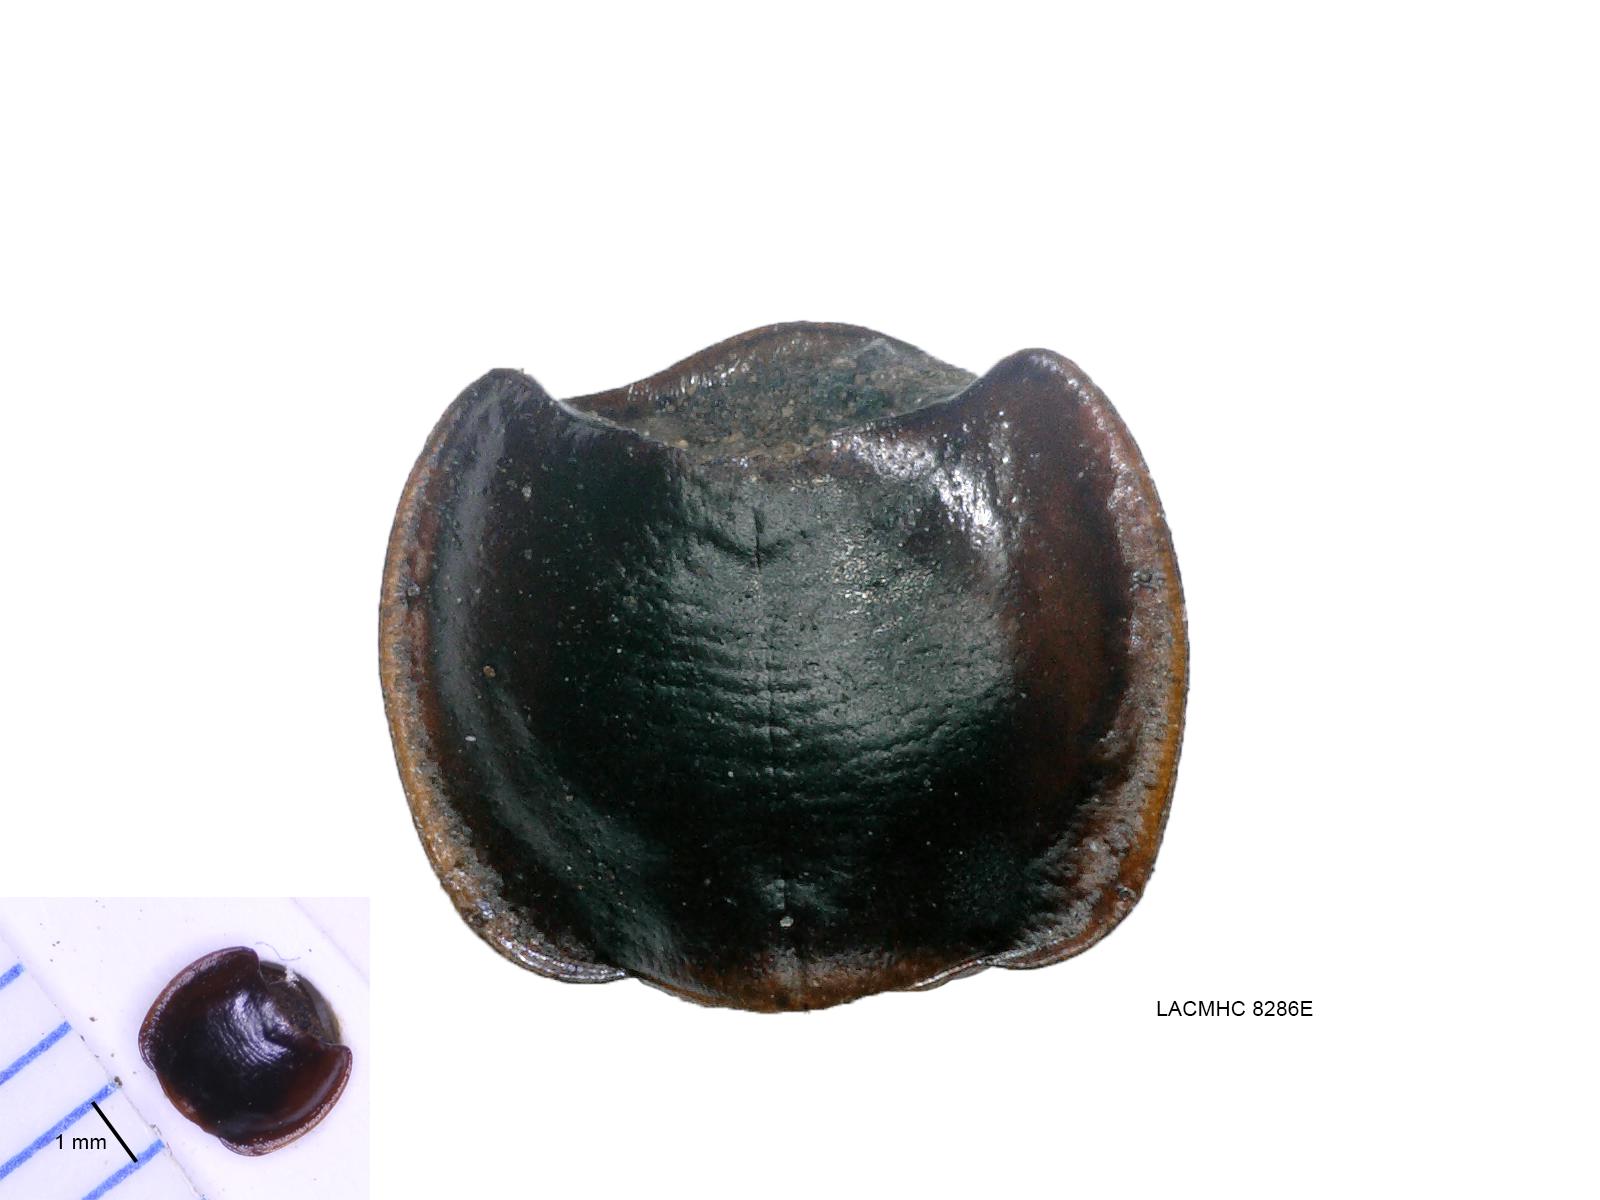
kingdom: Animalia
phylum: Arthropoda
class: Insecta
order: Coleoptera
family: Carabidae
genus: Tanystoma
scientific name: Tanystoma maculicolle
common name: Tule beetle
